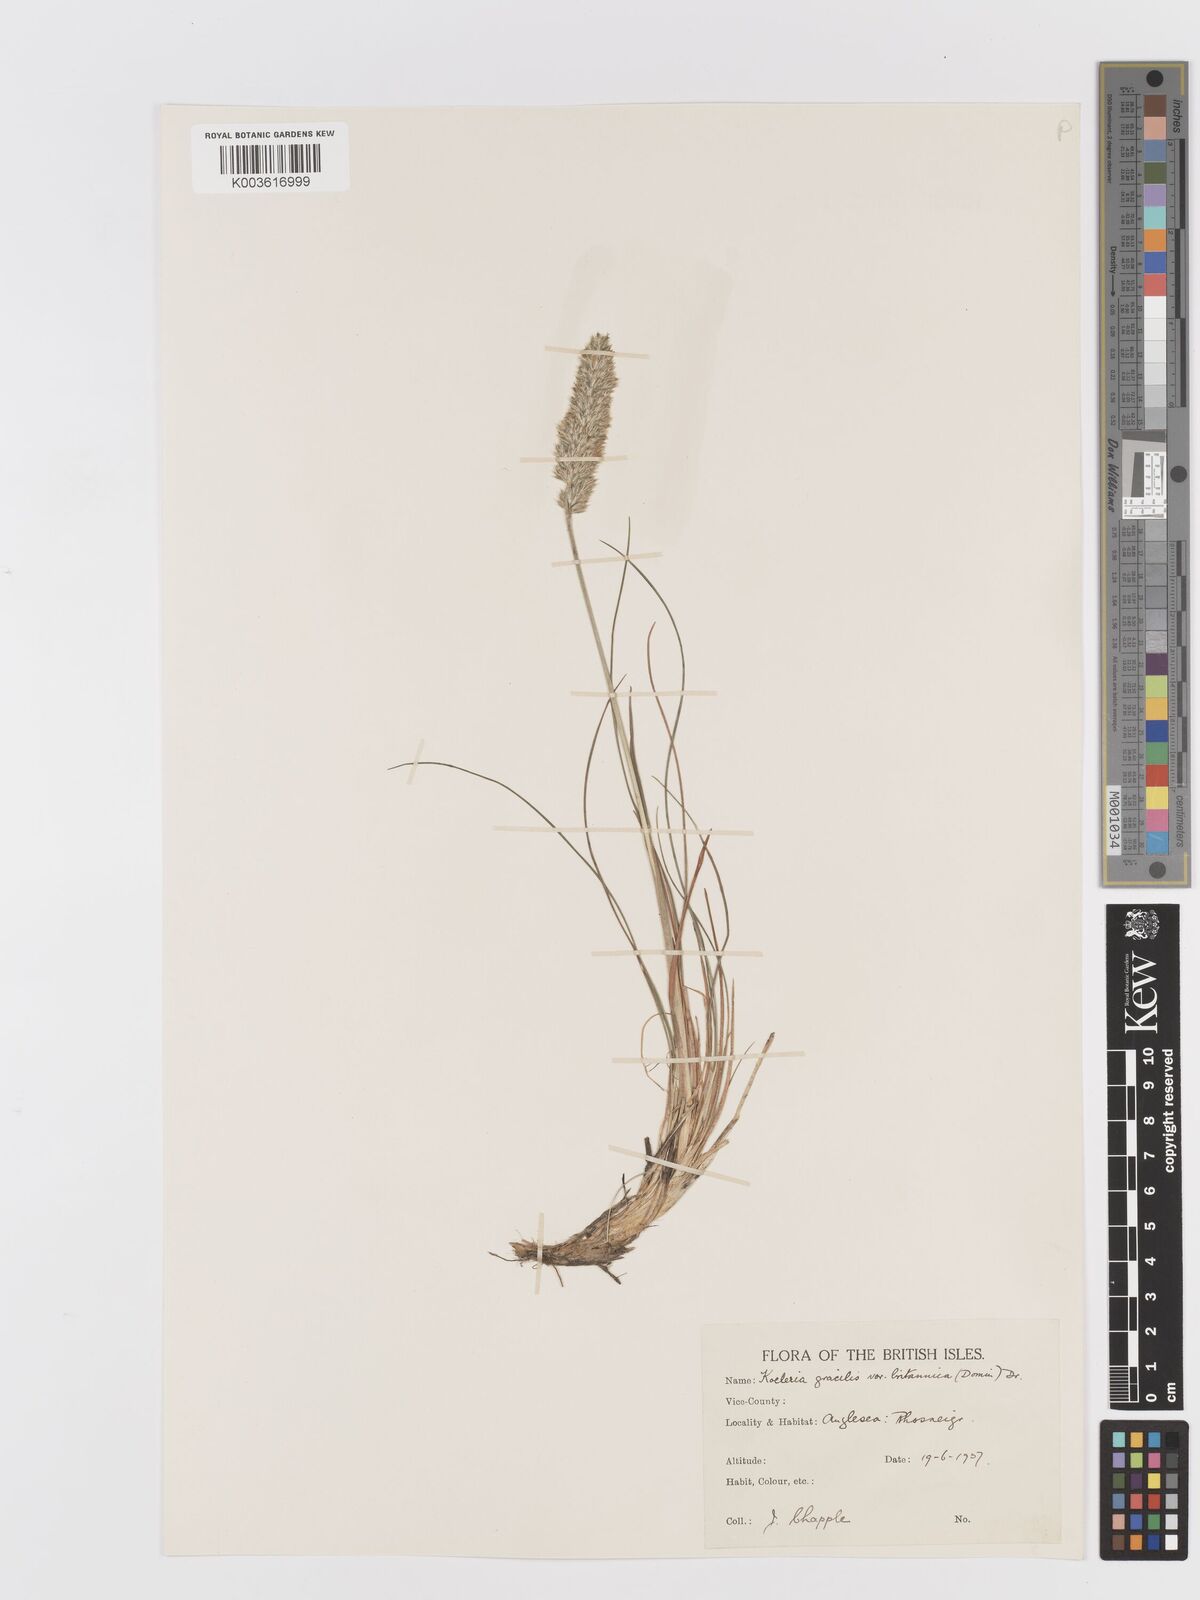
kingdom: Plantae
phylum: Tracheophyta
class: Liliopsida
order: Poales
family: Poaceae
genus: Koeleria
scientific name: Koeleria macrantha
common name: Crested hair-grass
